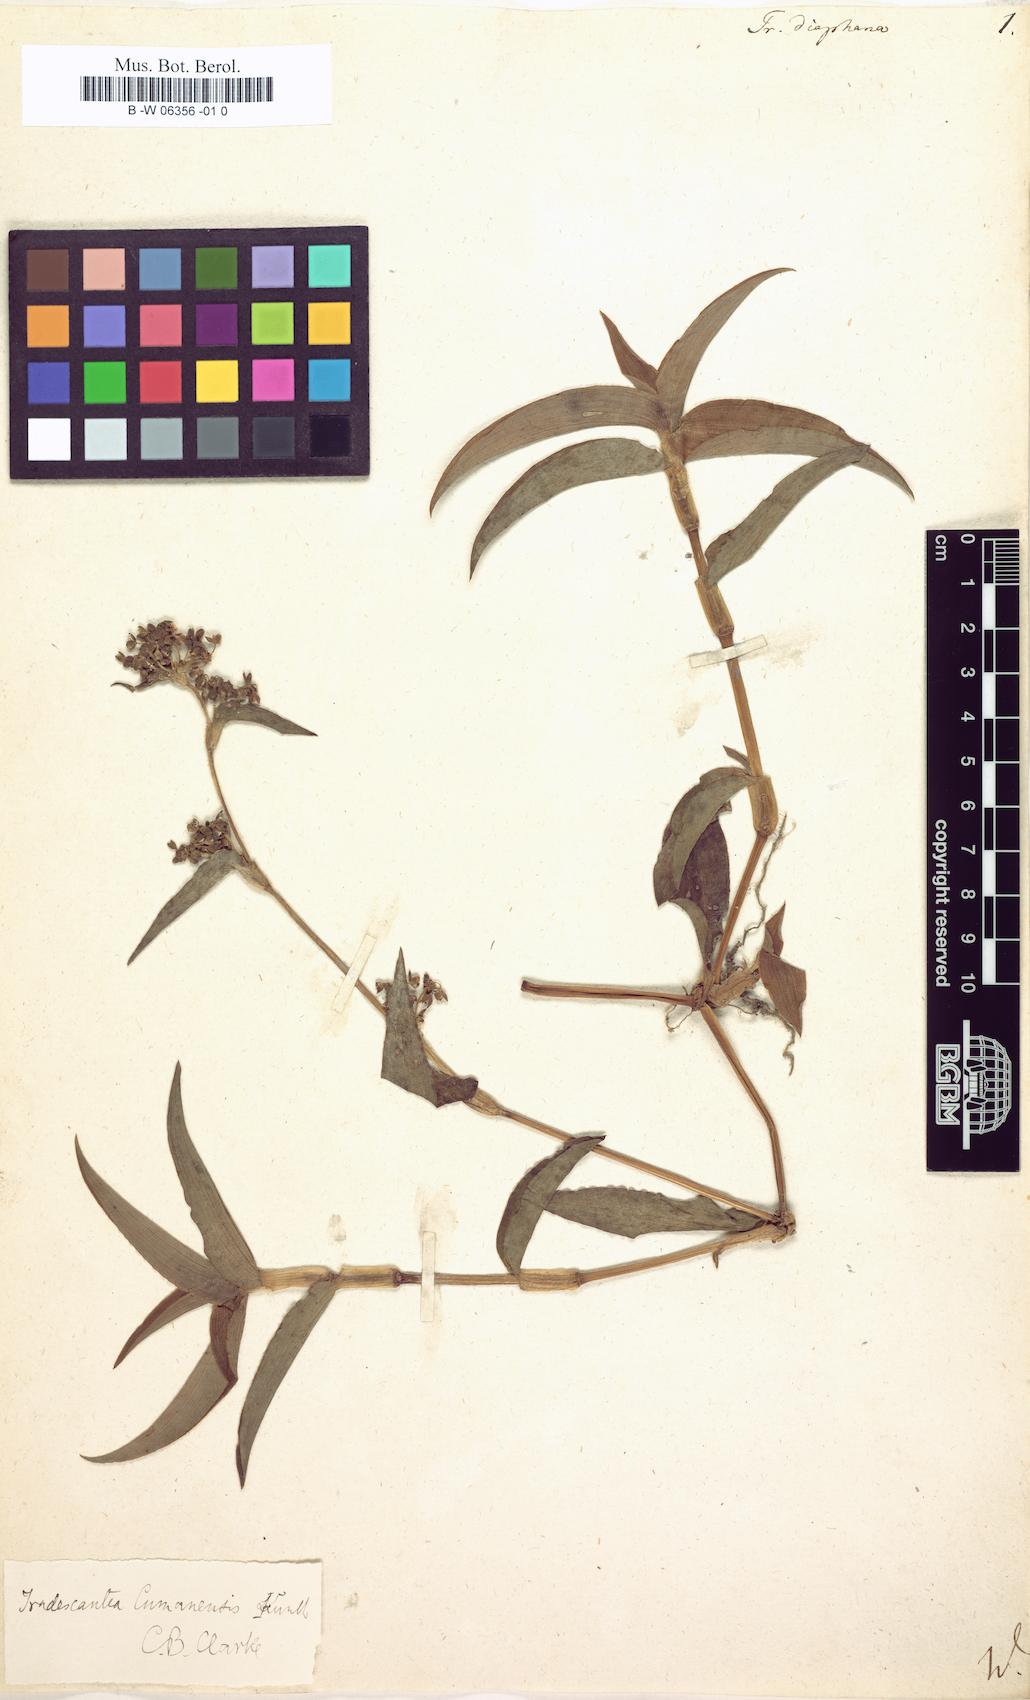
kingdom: Plantae
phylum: Tracheophyta
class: Liliopsida
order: Commelinales
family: Commelinaceae
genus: Callisia
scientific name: Callisia gracilis
